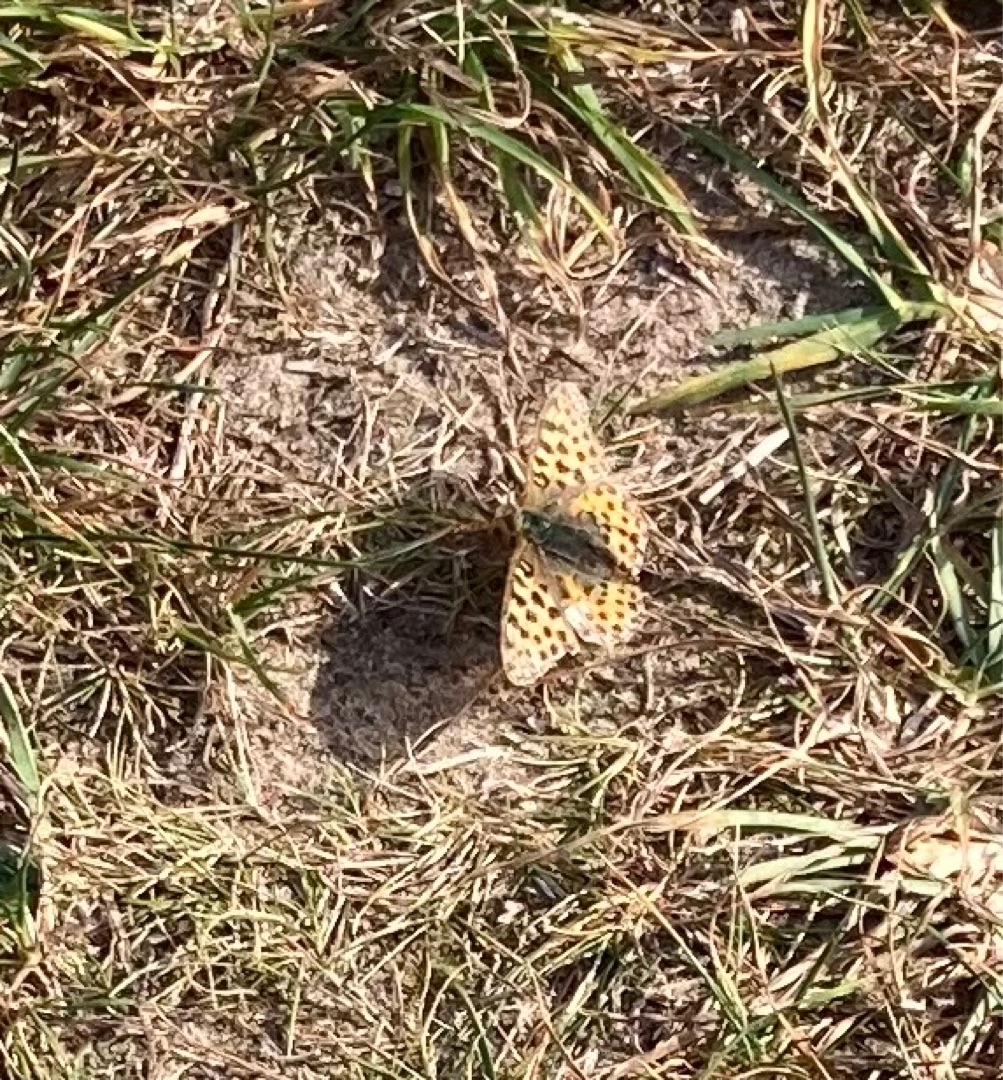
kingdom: Animalia
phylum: Arthropoda
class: Insecta
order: Lepidoptera
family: Nymphalidae
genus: Issoria
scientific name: Issoria lathonia
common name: Storplettet perlemorsommerfugl
